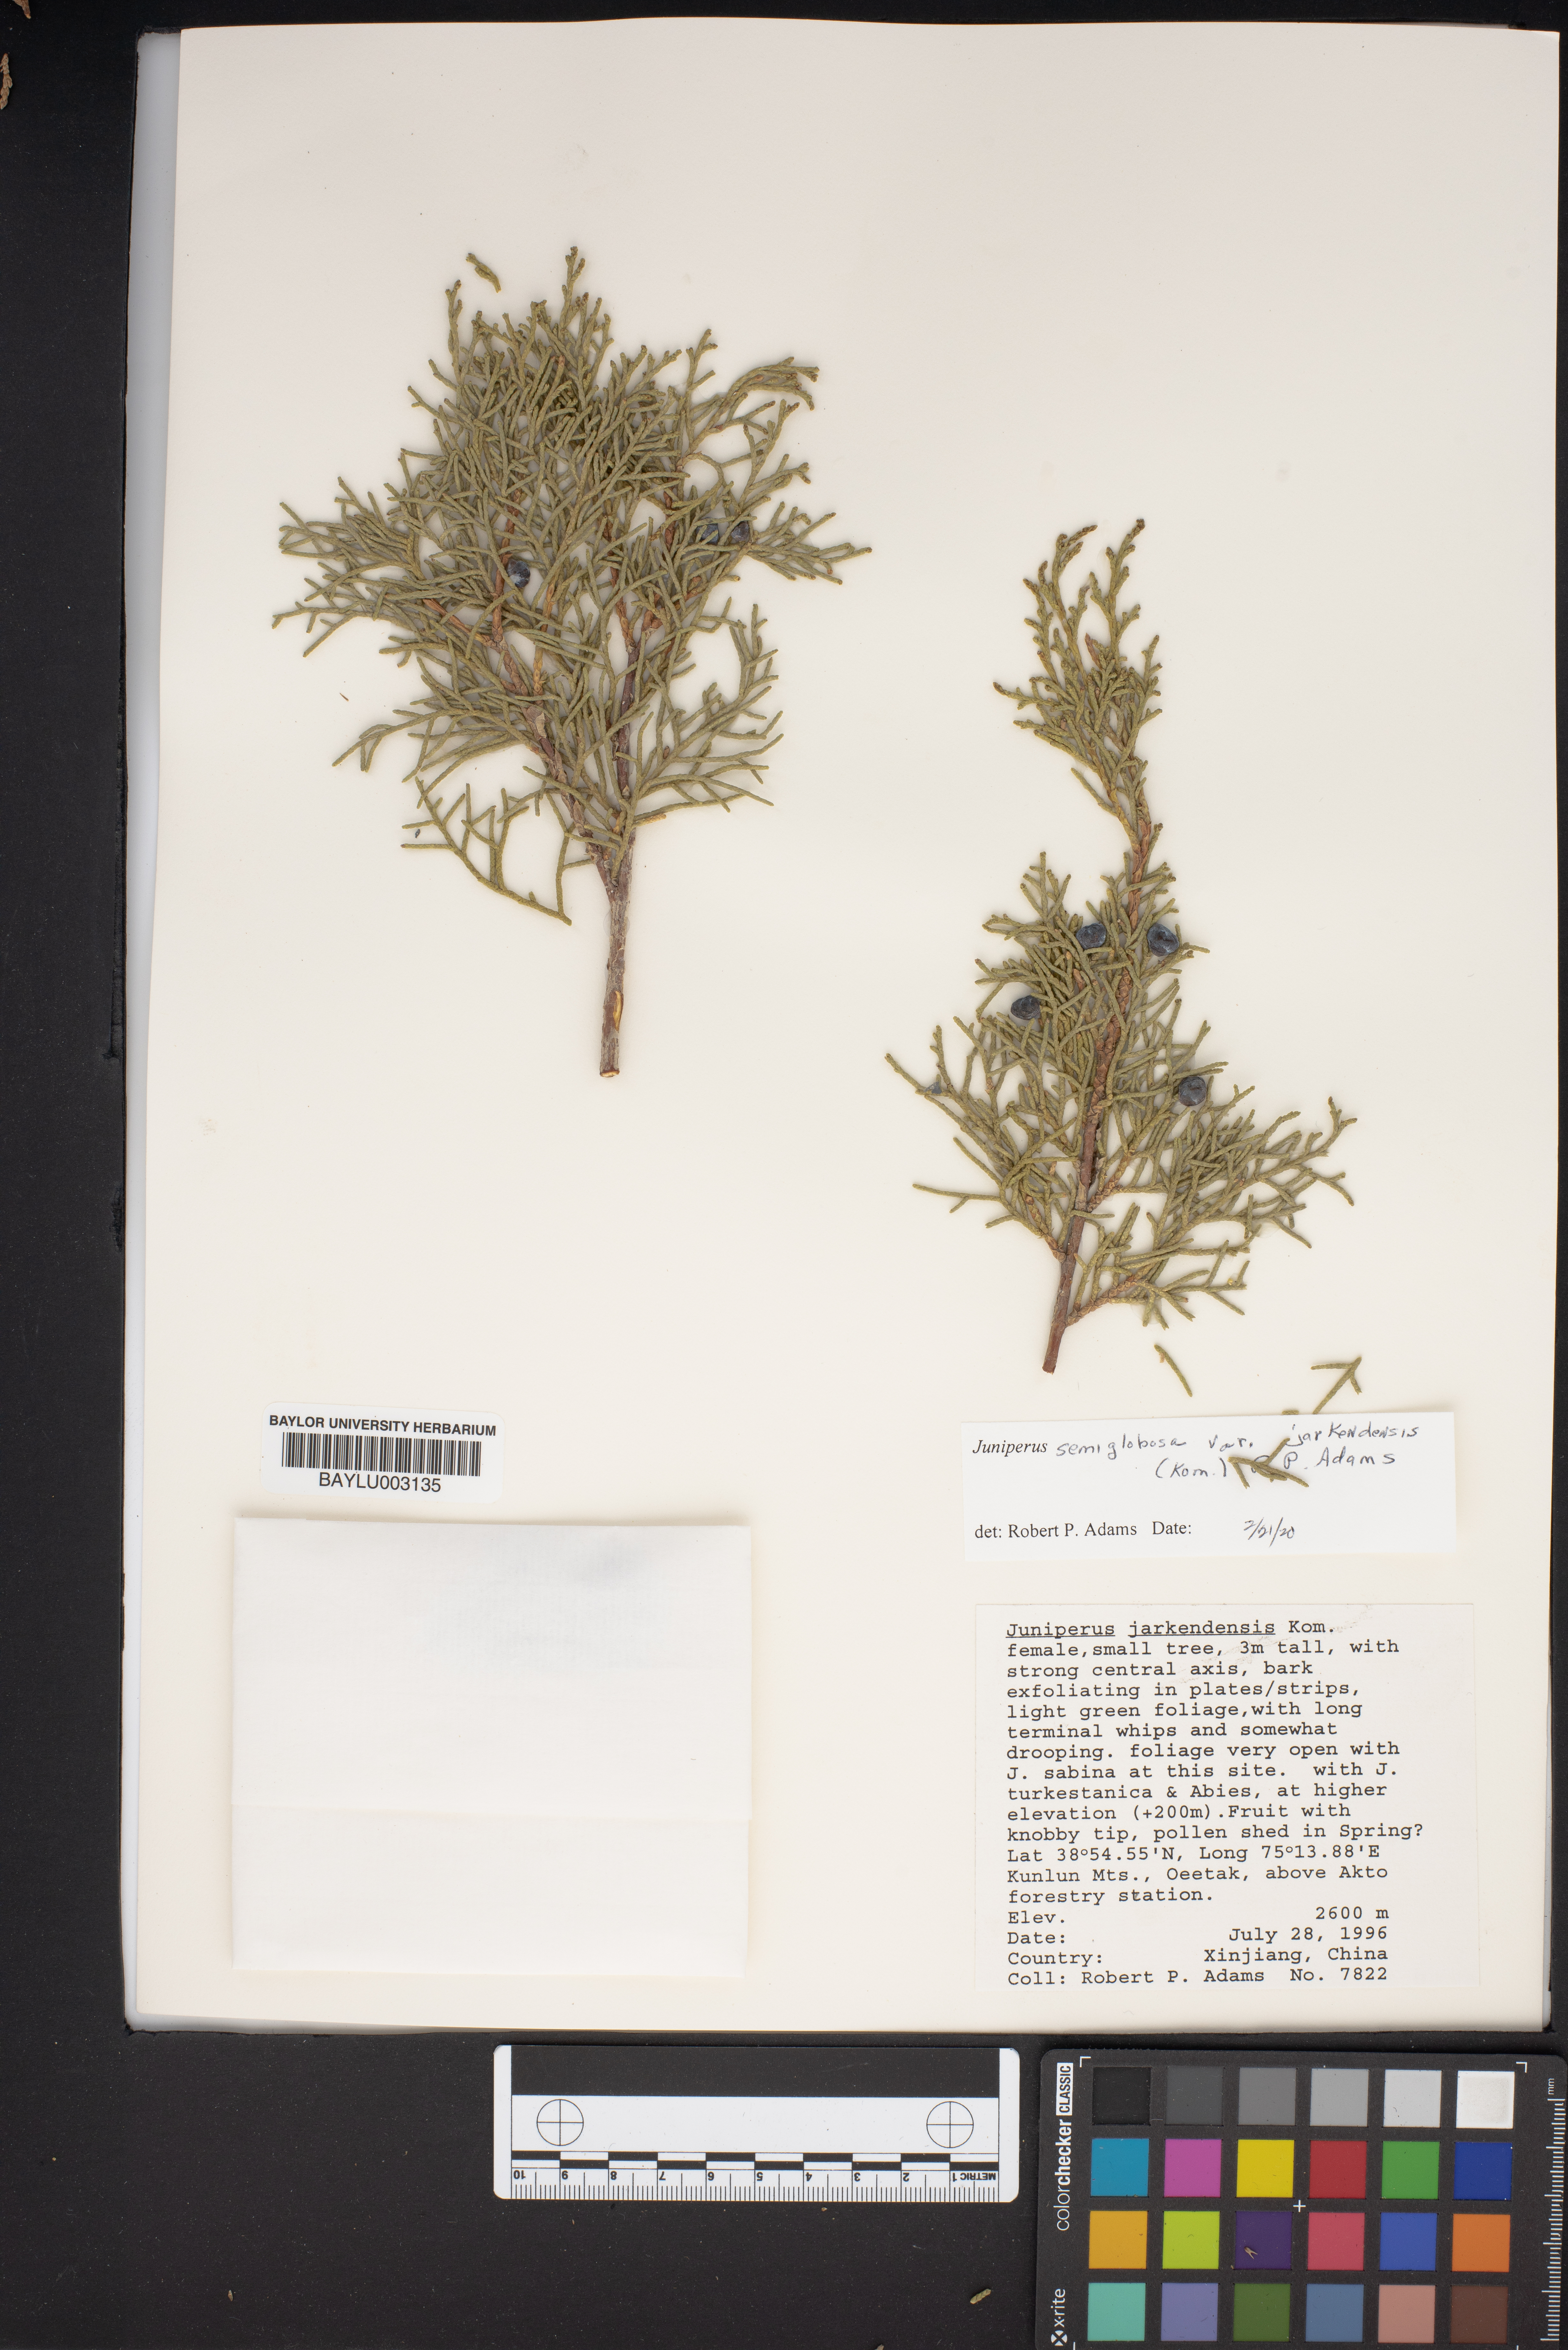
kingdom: Plantae
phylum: Tracheophyta
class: Pinopsida
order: Pinales
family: Cupressaceae
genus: Juniperus
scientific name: Juniperus semiglobosa
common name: Pencil cedar
